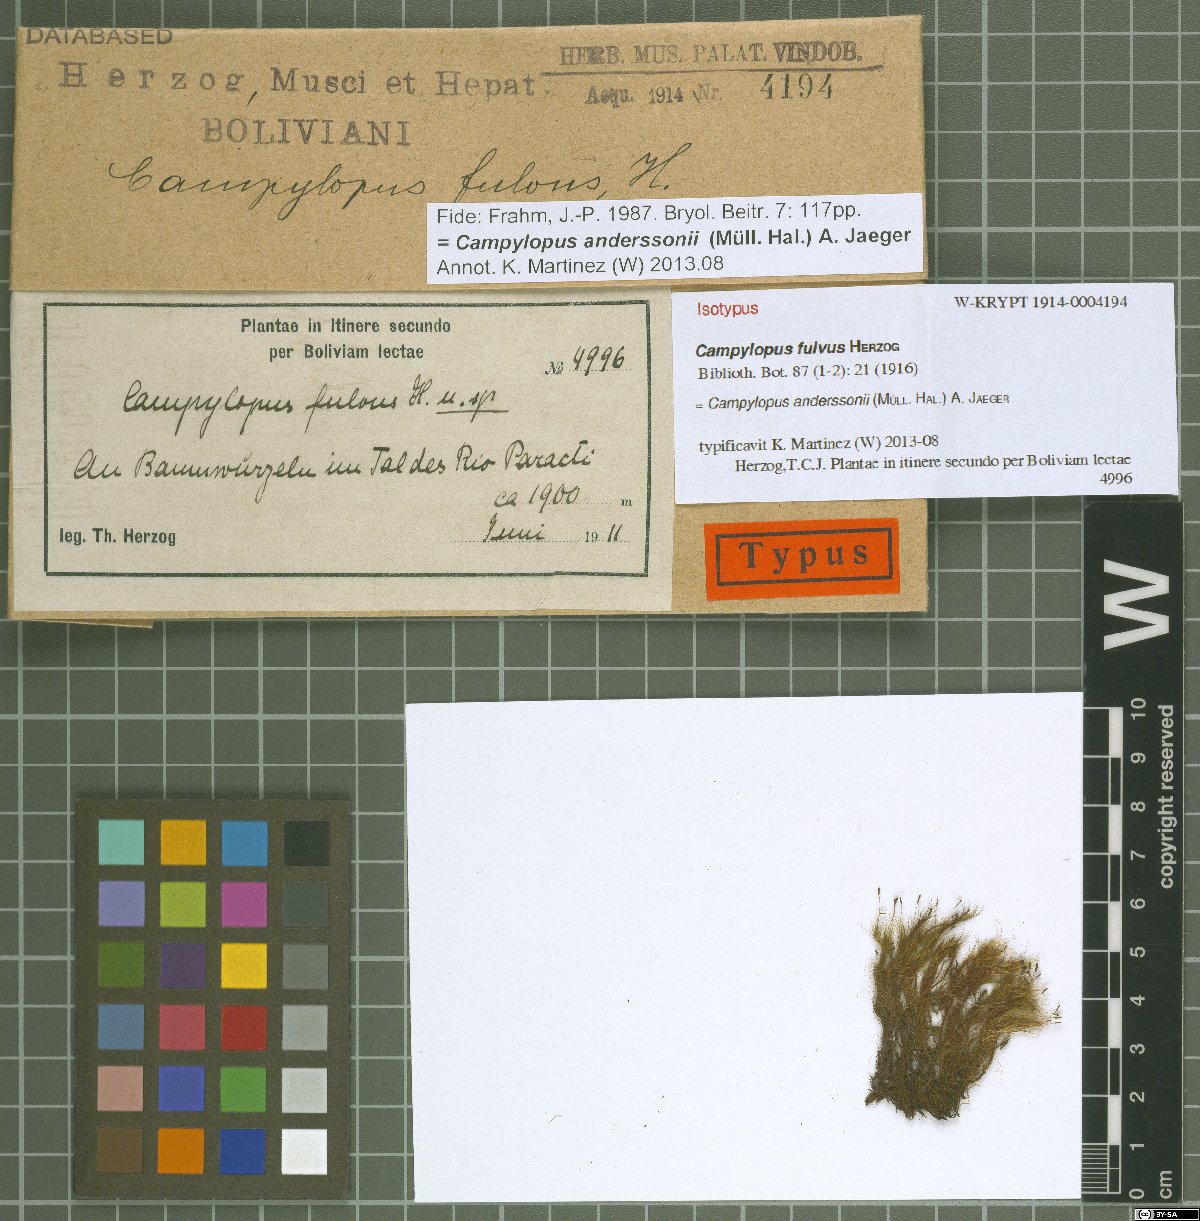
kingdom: Plantae
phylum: Bryophyta
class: Bryopsida
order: Dicranales
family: Leucobryaceae
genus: Campylopus
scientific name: Campylopus anderssonii
